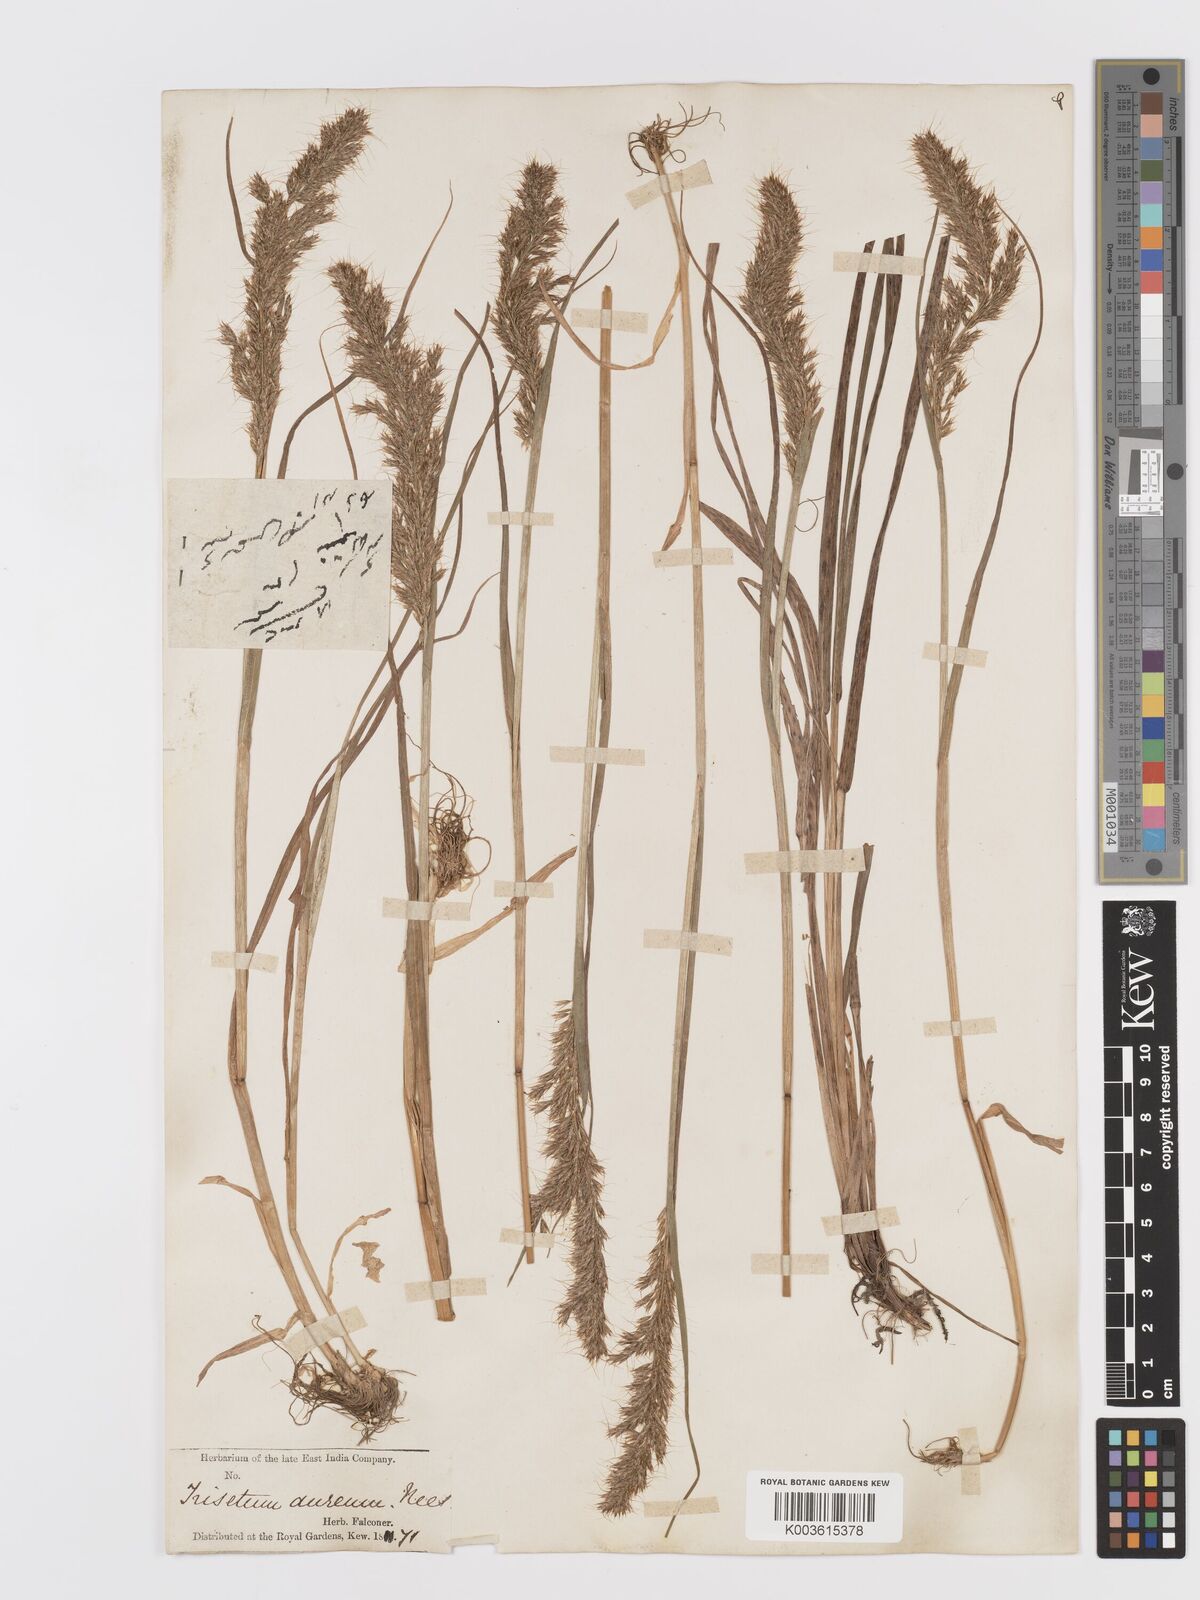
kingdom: Plantae
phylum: Tracheophyta
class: Liliopsida
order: Poales
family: Poaceae
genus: Sibirotrisetum
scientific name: Sibirotrisetum aeneum
